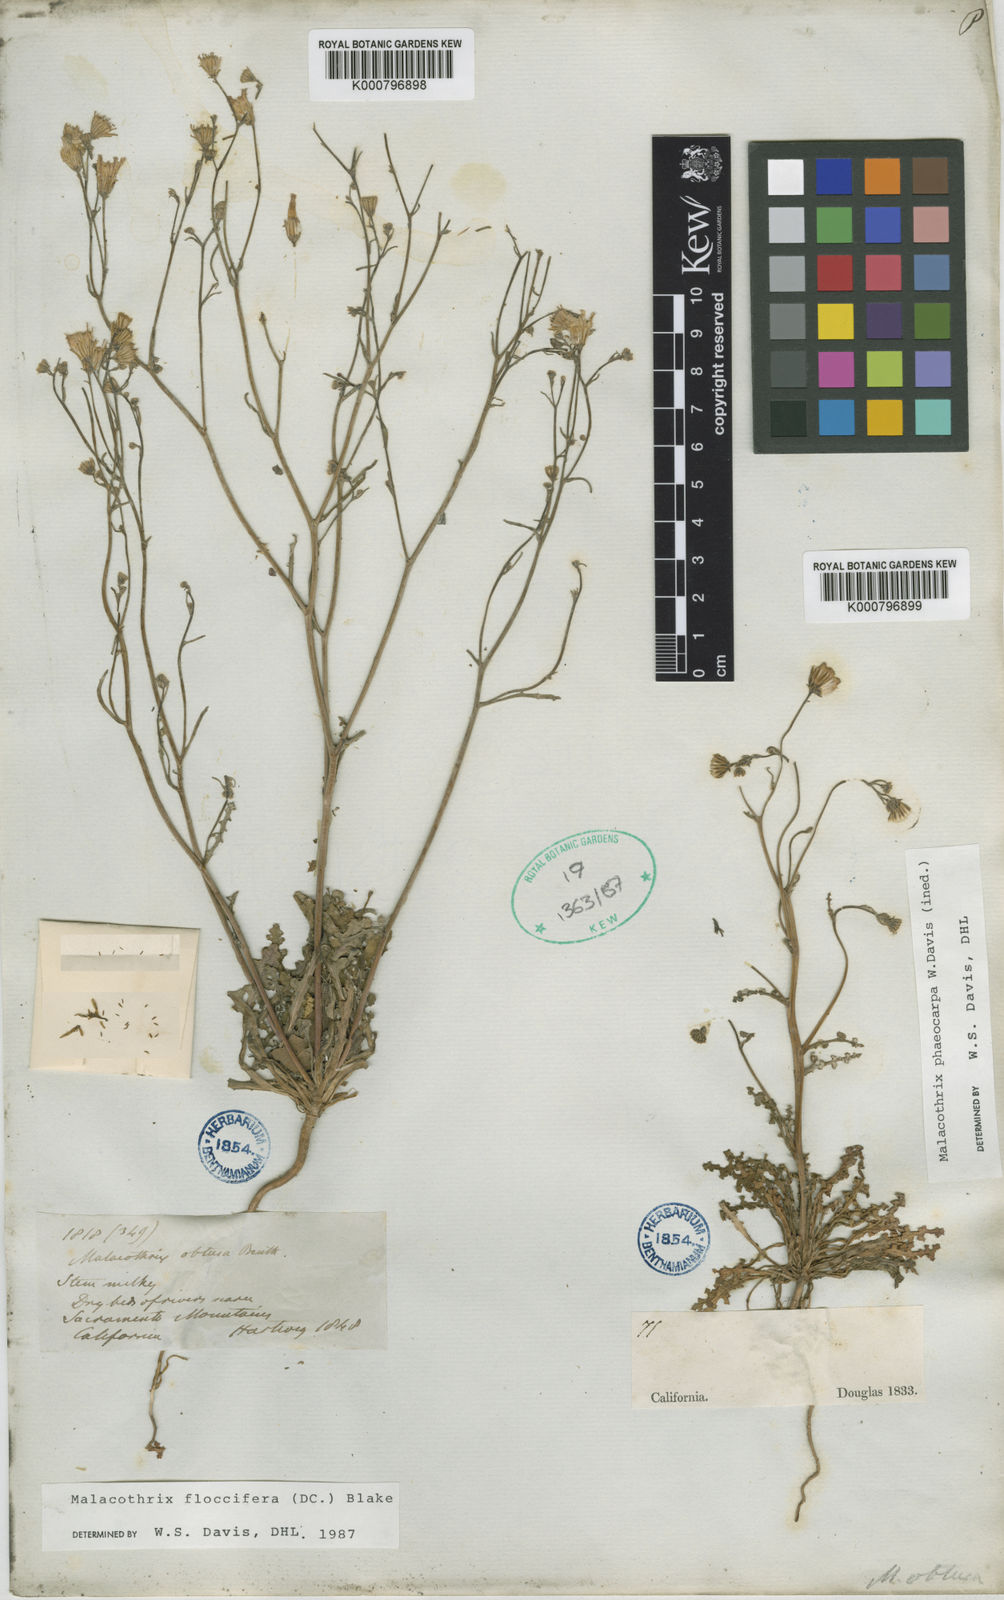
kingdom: Plantae
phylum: Tracheophyta
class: Magnoliopsida
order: Asterales
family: Asteraceae
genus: Malacothrix
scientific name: Malacothrix phaeocarpa
